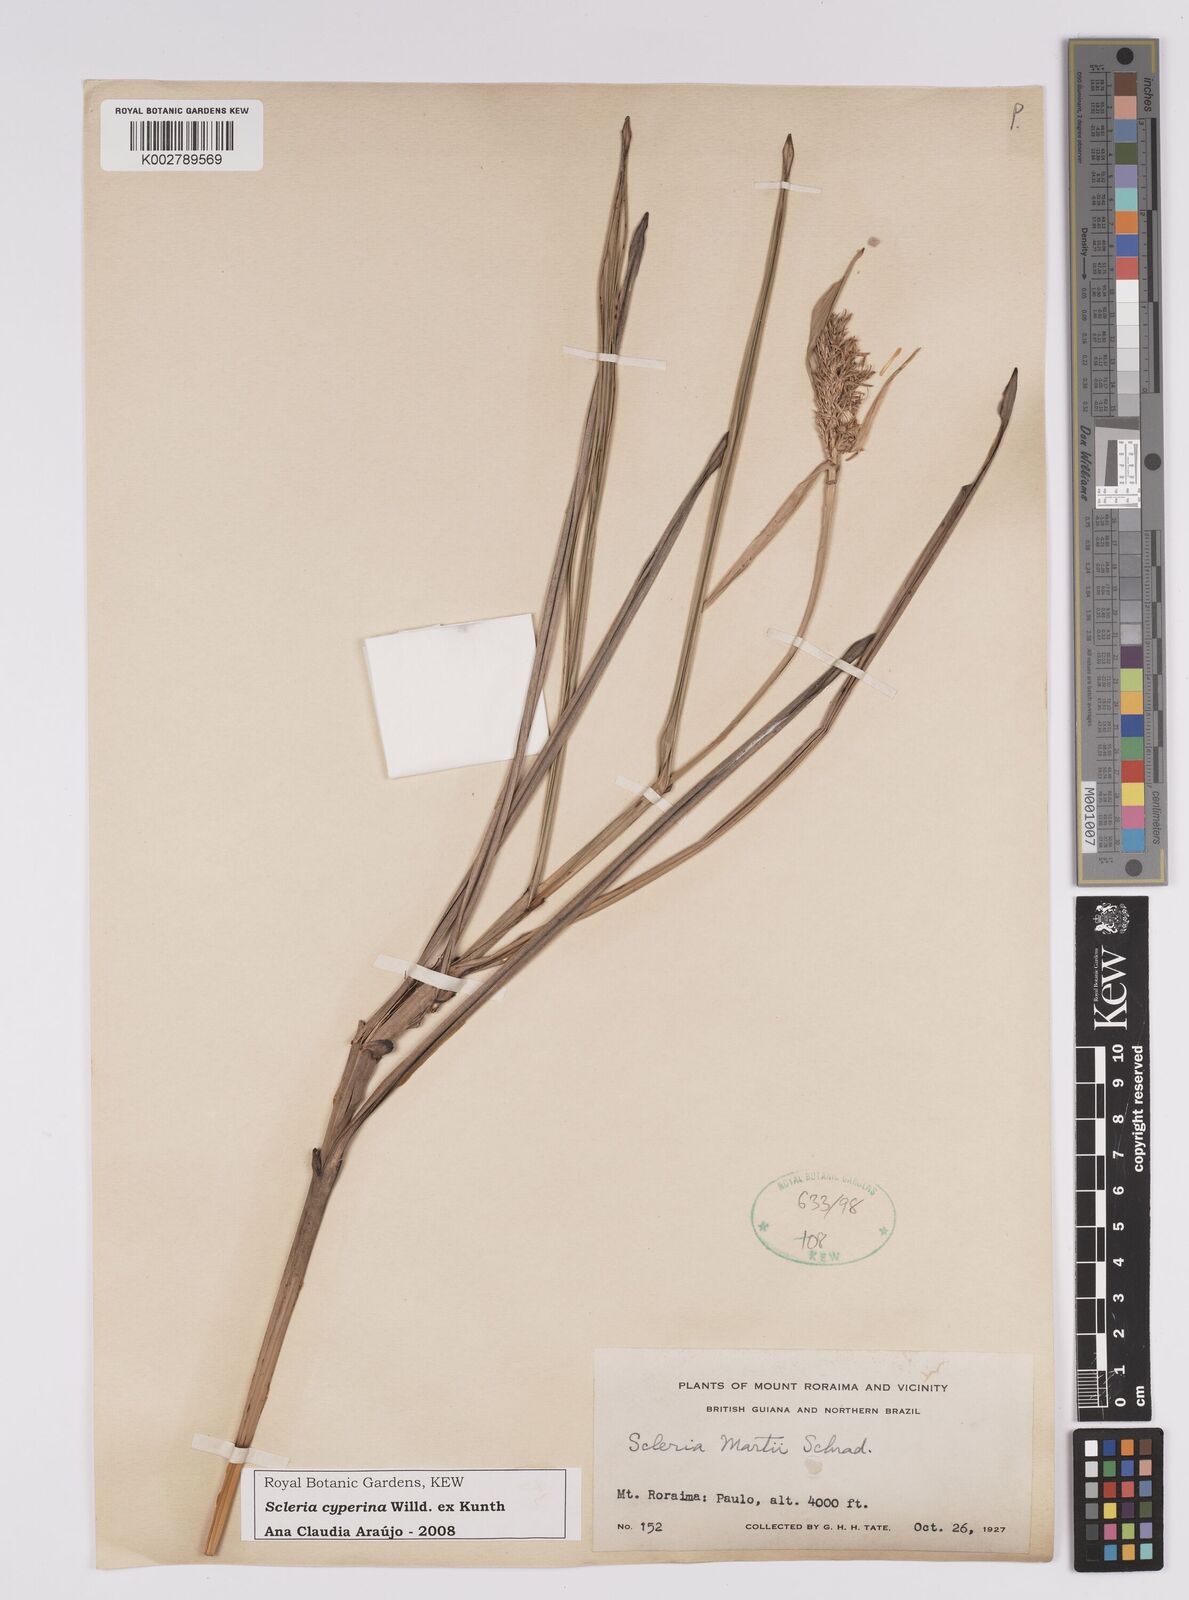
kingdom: Plantae
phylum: Tracheophyta
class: Liliopsida
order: Poales
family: Cyperaceae
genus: Scleria
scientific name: Scleria cyperina
